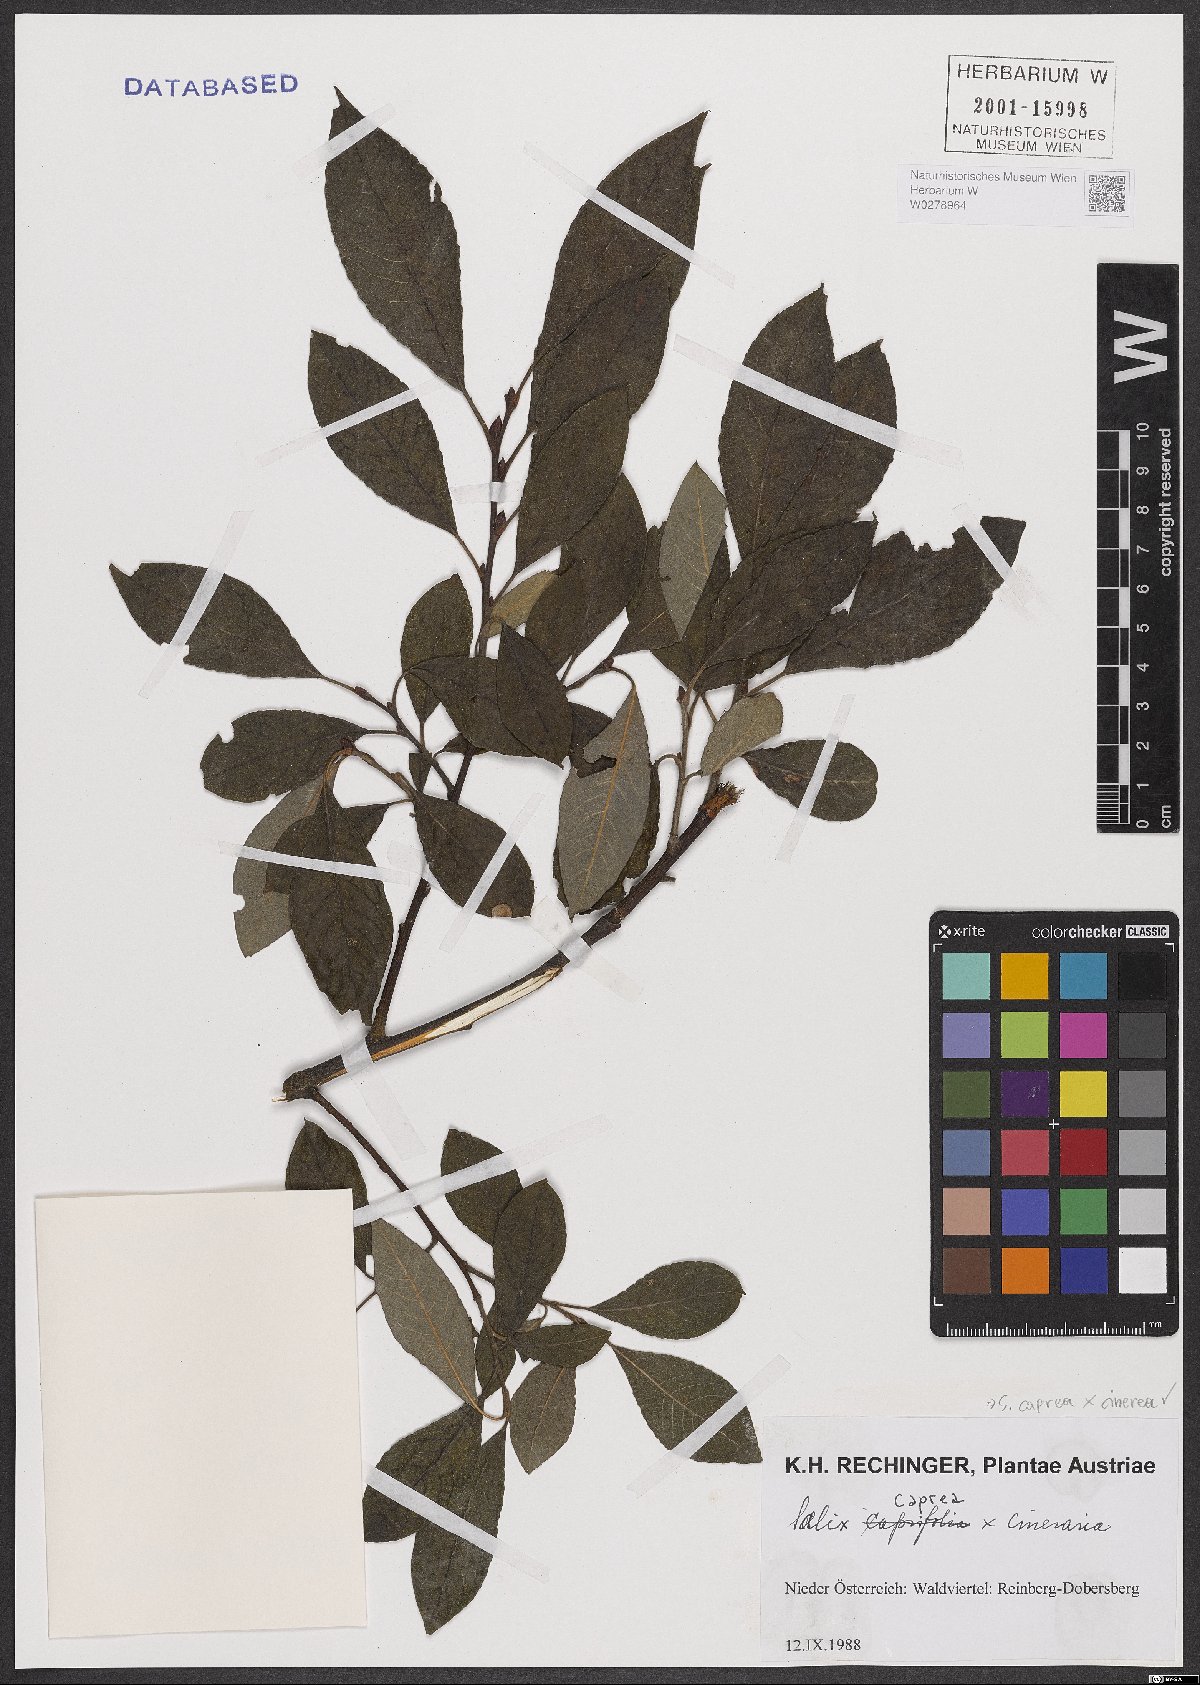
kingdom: Plantae
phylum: Tracheophyta
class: Magnoliopsida
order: Malpighiales
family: Salicaceae
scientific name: Salicaceae
